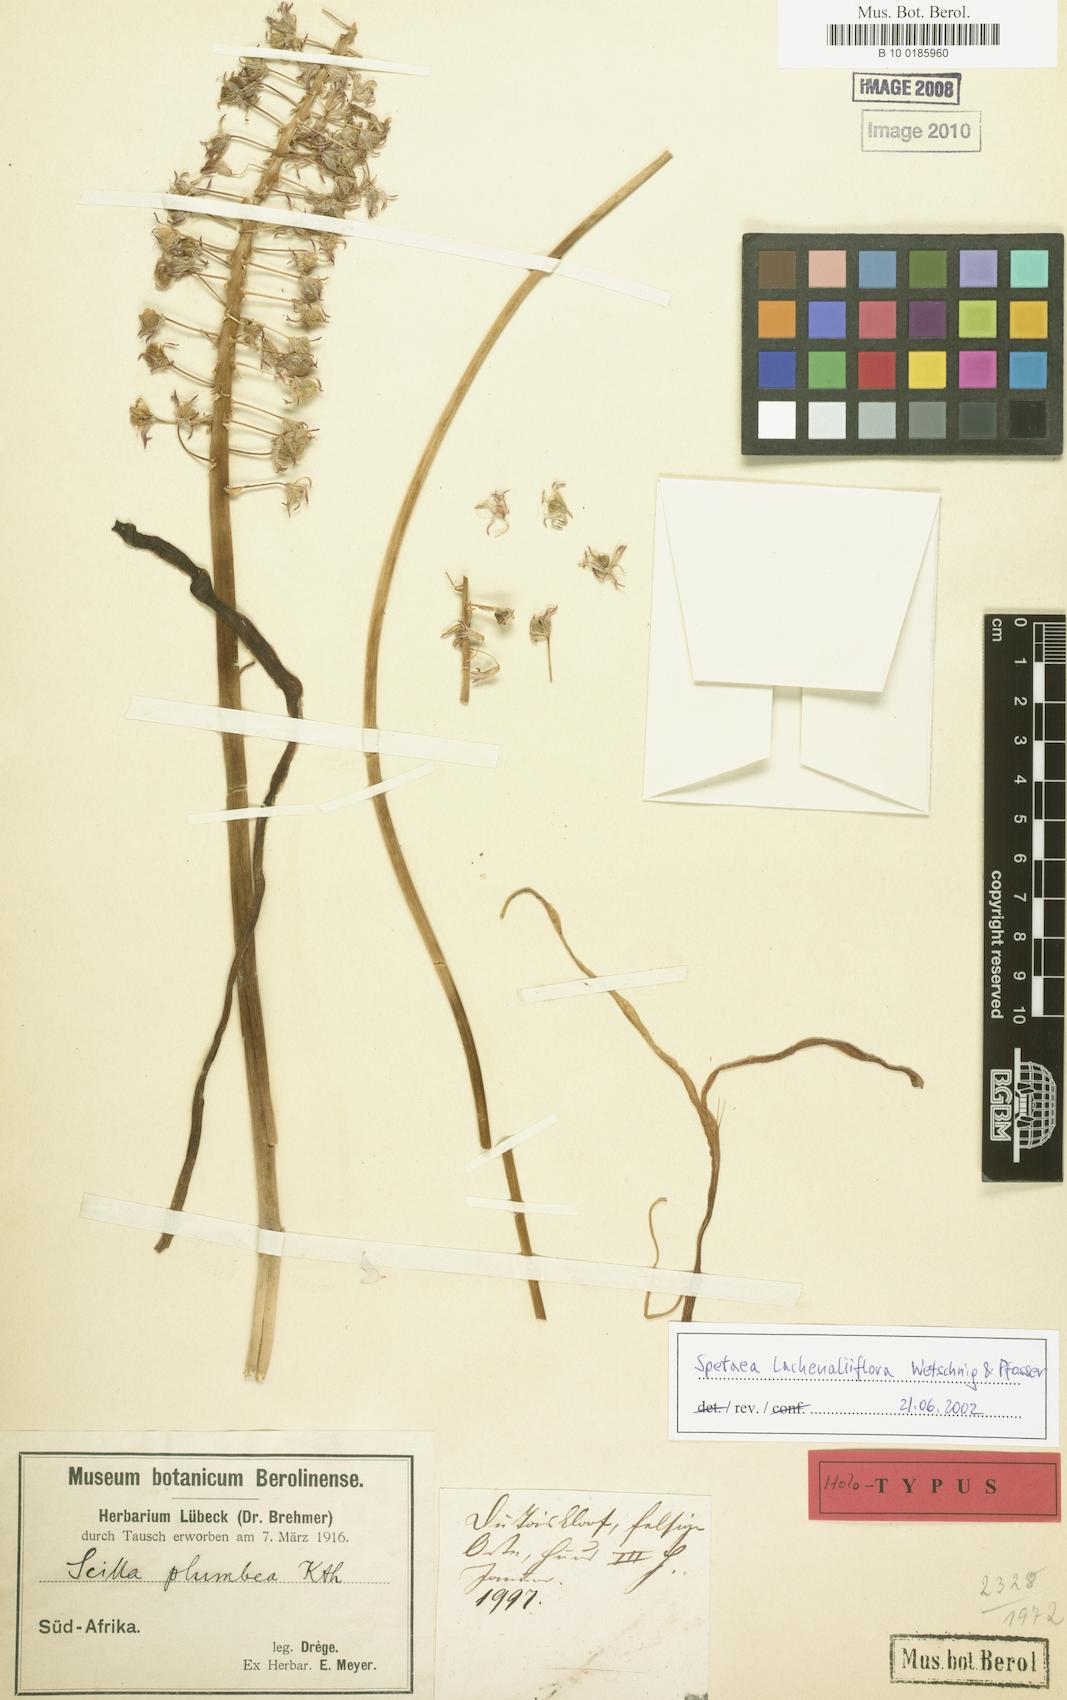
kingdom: Plantae
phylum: Tracheophyta
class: Liliopsida
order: Asparagales
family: Asparagaceae
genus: Spetaea
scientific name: Spetaea lachenaliiflora
